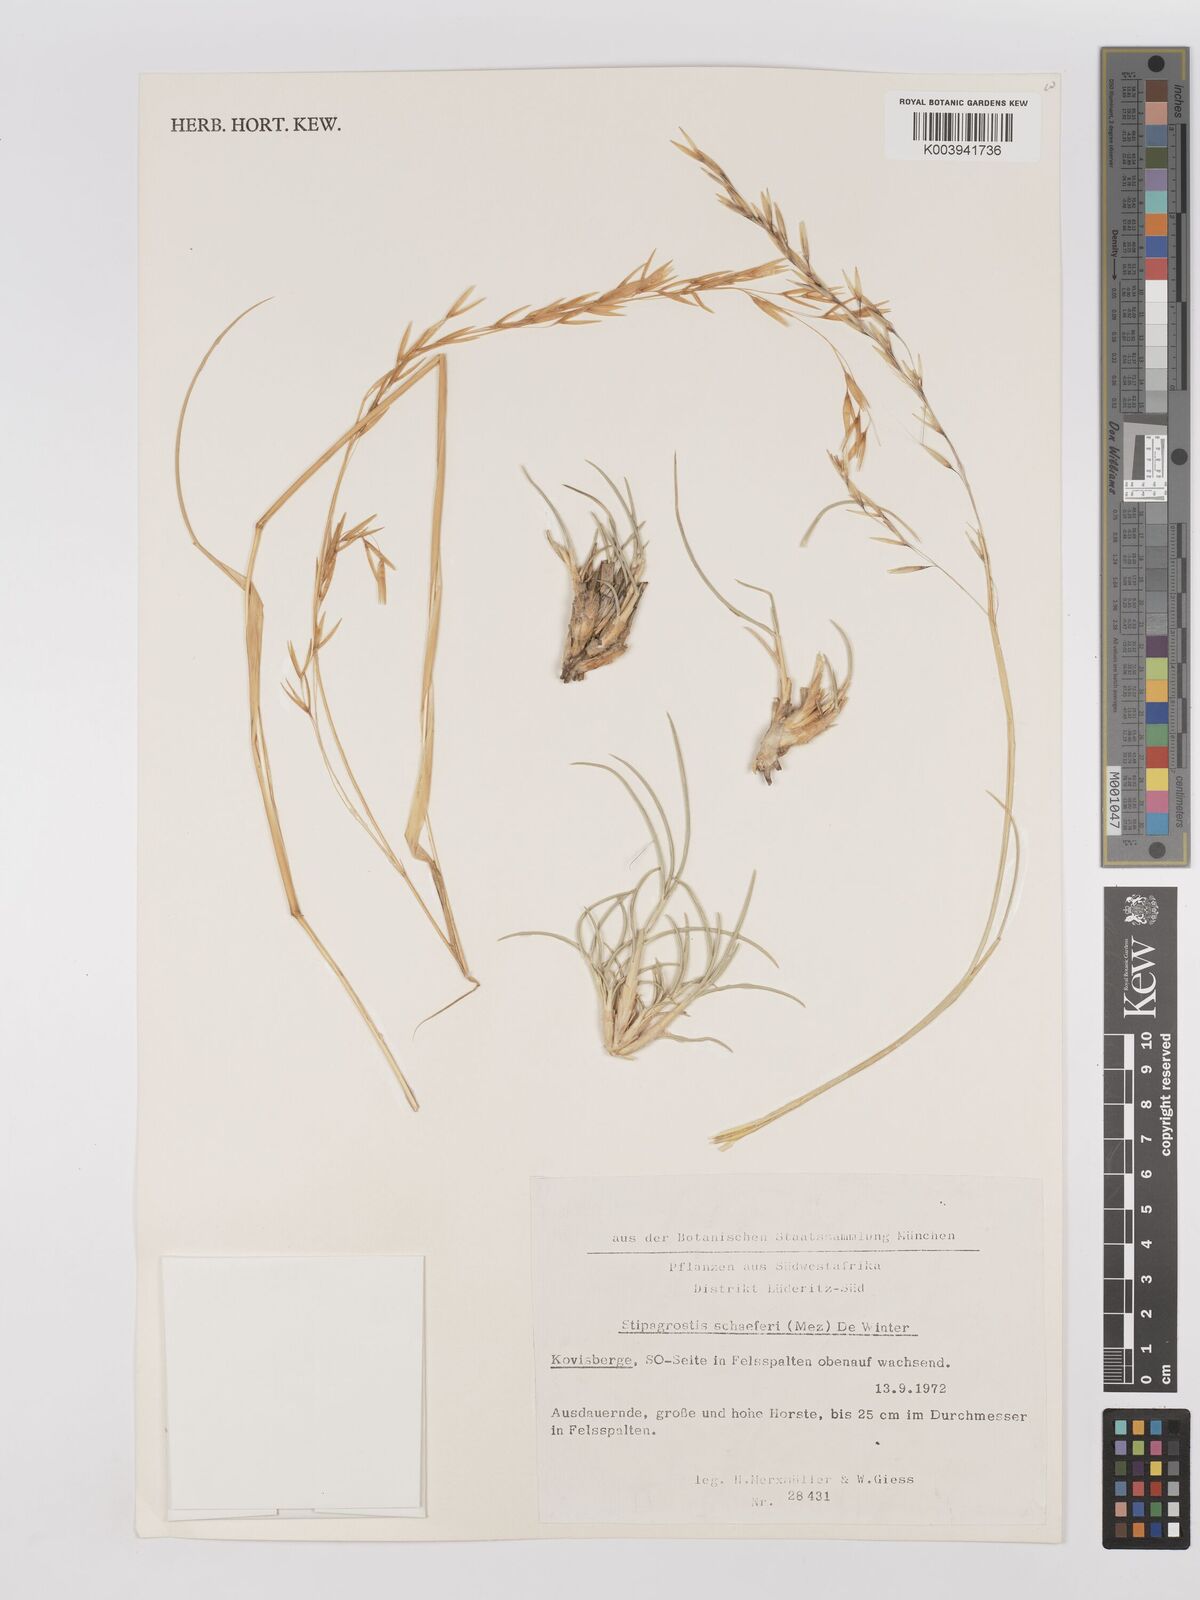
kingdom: Plantae
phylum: Tracheophyta
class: Liliopsida
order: Poales
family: Poaceae
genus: Stipagrostis
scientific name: Stipagrostis schaeferi
